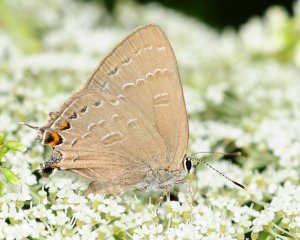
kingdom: Animalia
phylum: Arthropoda
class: Insecta
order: Lepidoptera
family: Lycaenidae
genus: Satyrium
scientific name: Satyrium calanus
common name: Banded Hairstreak
